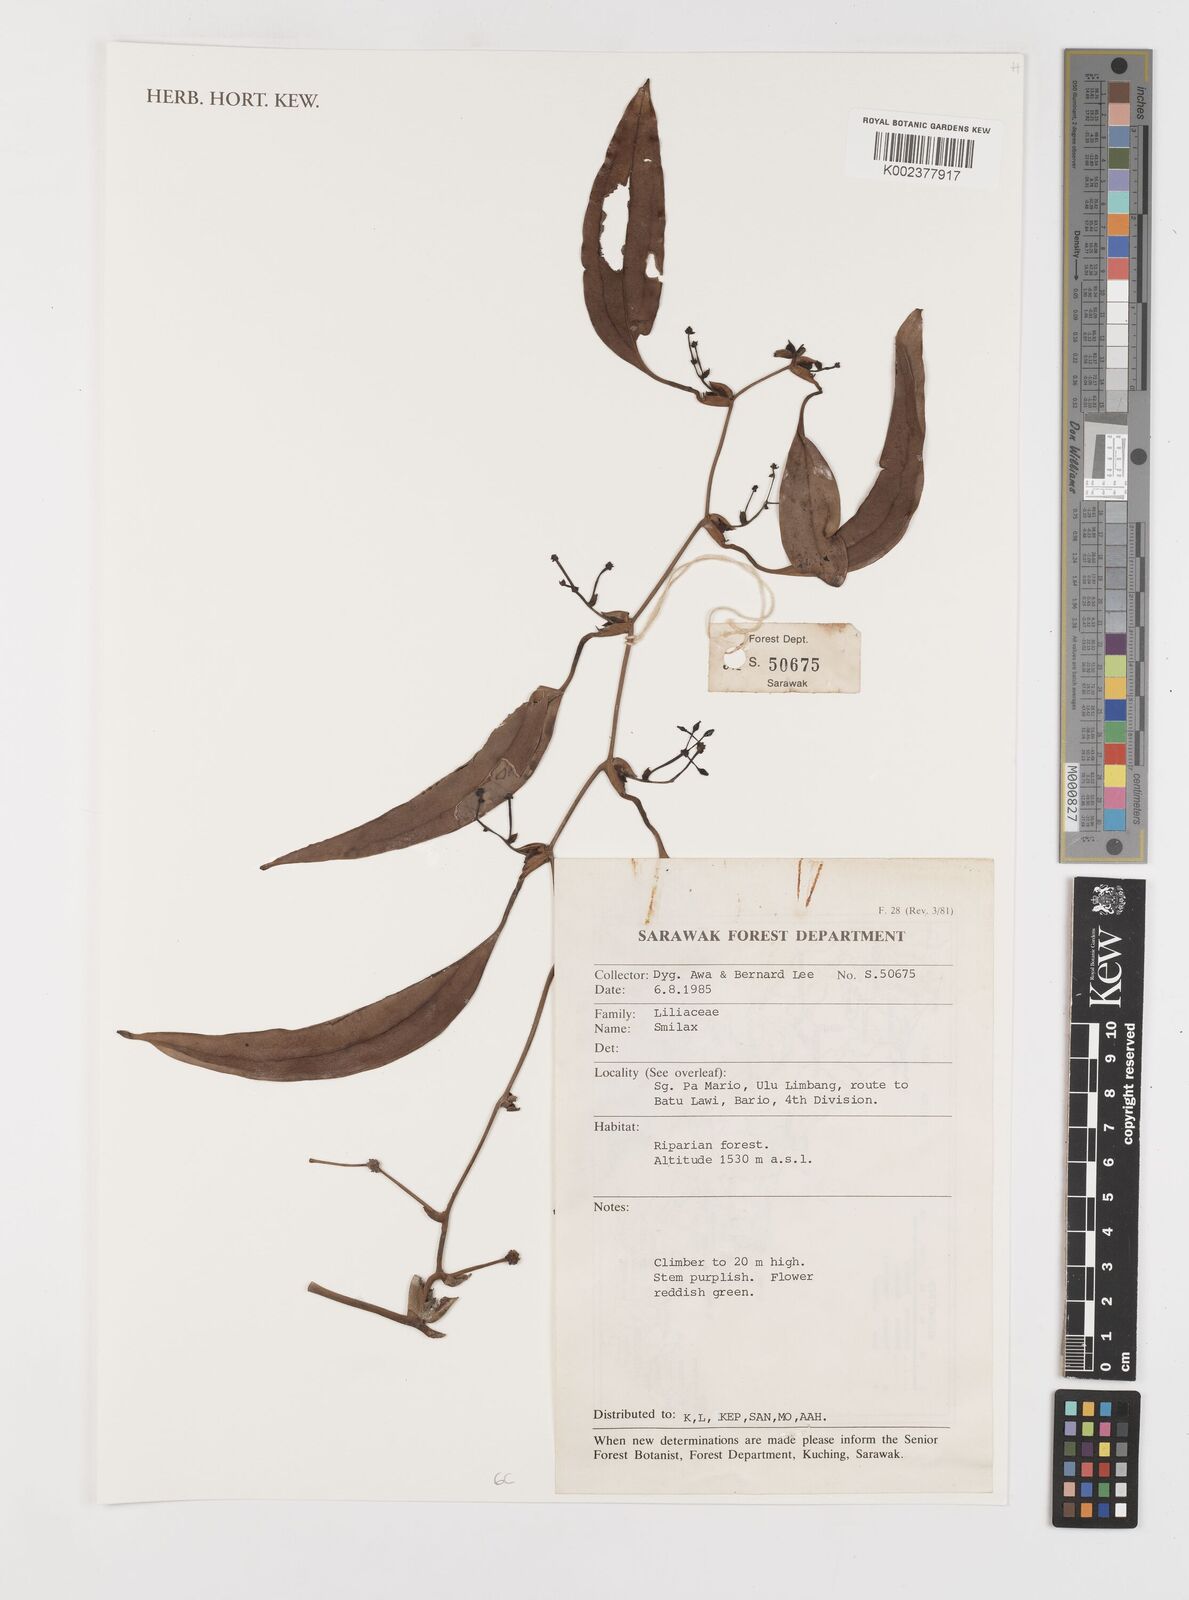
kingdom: Plantae
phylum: Tracheophyta
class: Liliopsida
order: Liliales
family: Smilacaceae
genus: Smilax
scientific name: Smilax
